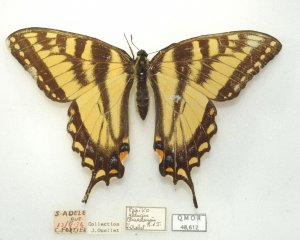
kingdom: Animalia
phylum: Arthropoda
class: Insecta
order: Lepidoptera
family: Papilionidae
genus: Pterourus
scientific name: Pterourus glaucus
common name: Eastern Tiger Swallowtail
